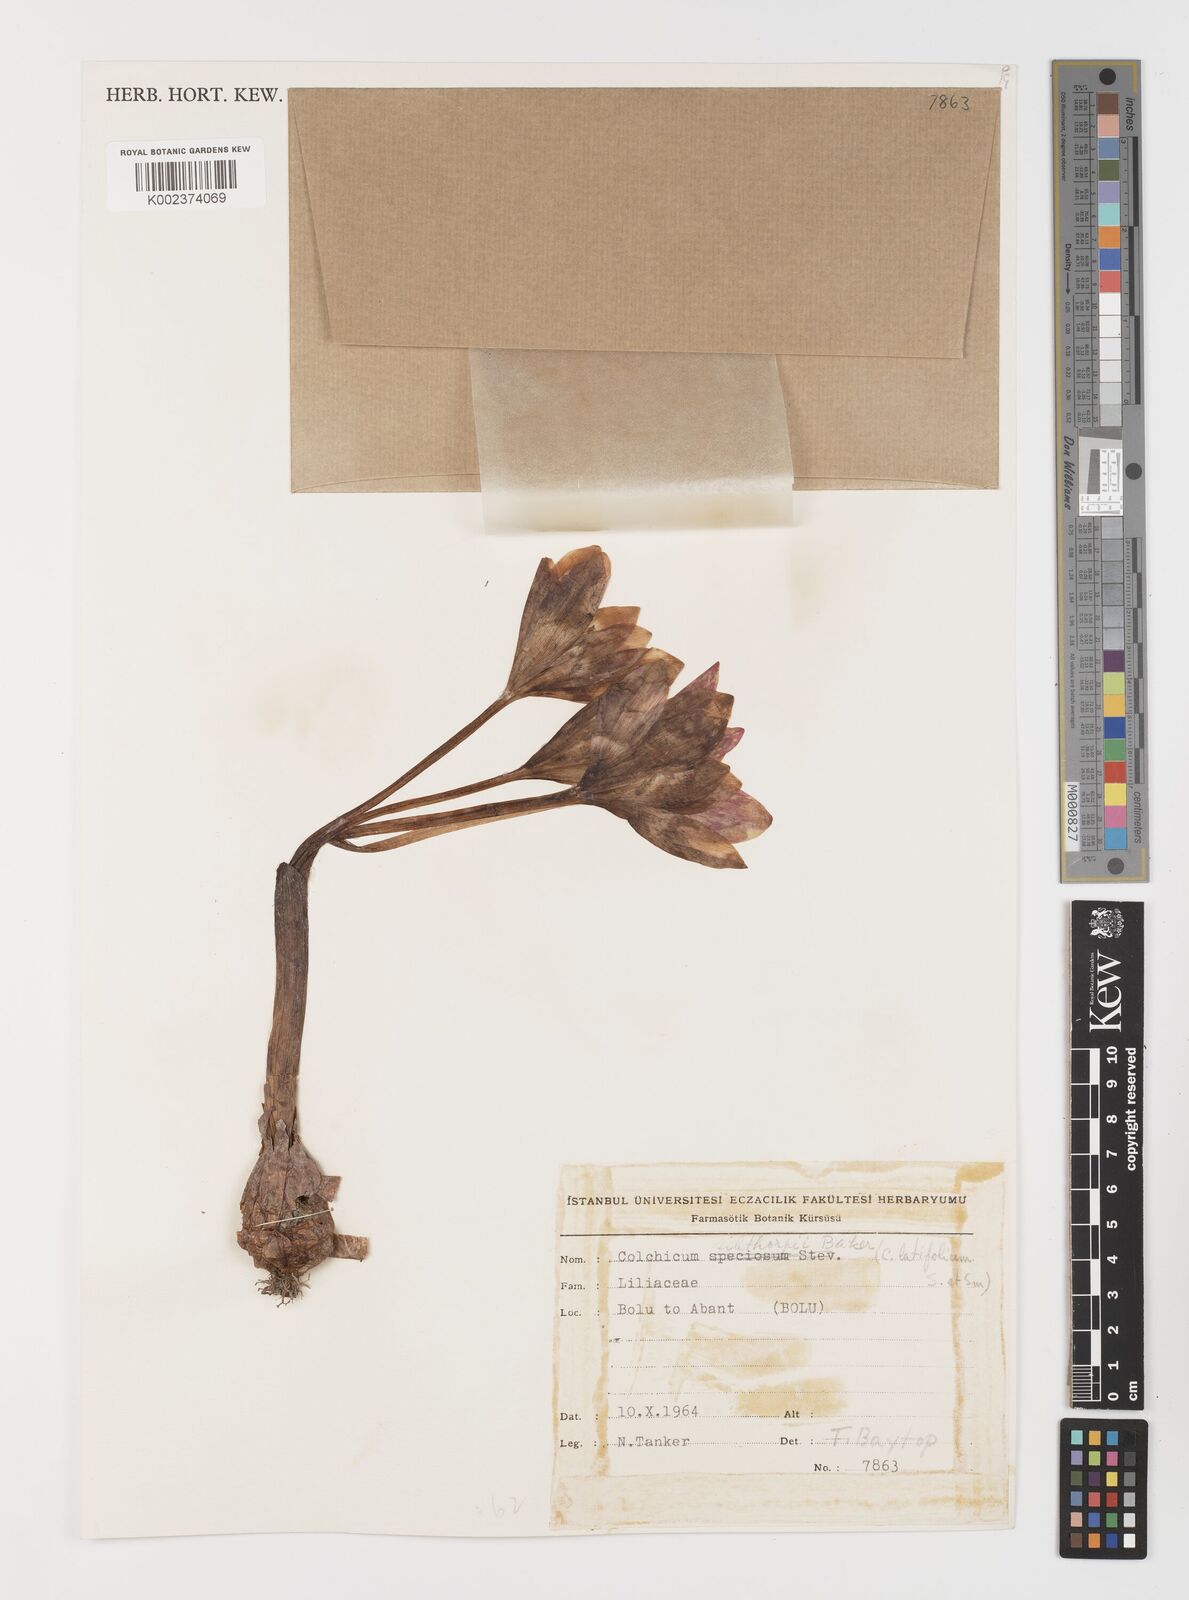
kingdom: Plantae
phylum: Tracheophyta
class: Liliopsida
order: Liliales
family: Colchicaceae
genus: Colchicum
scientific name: Colchicum bivonae
